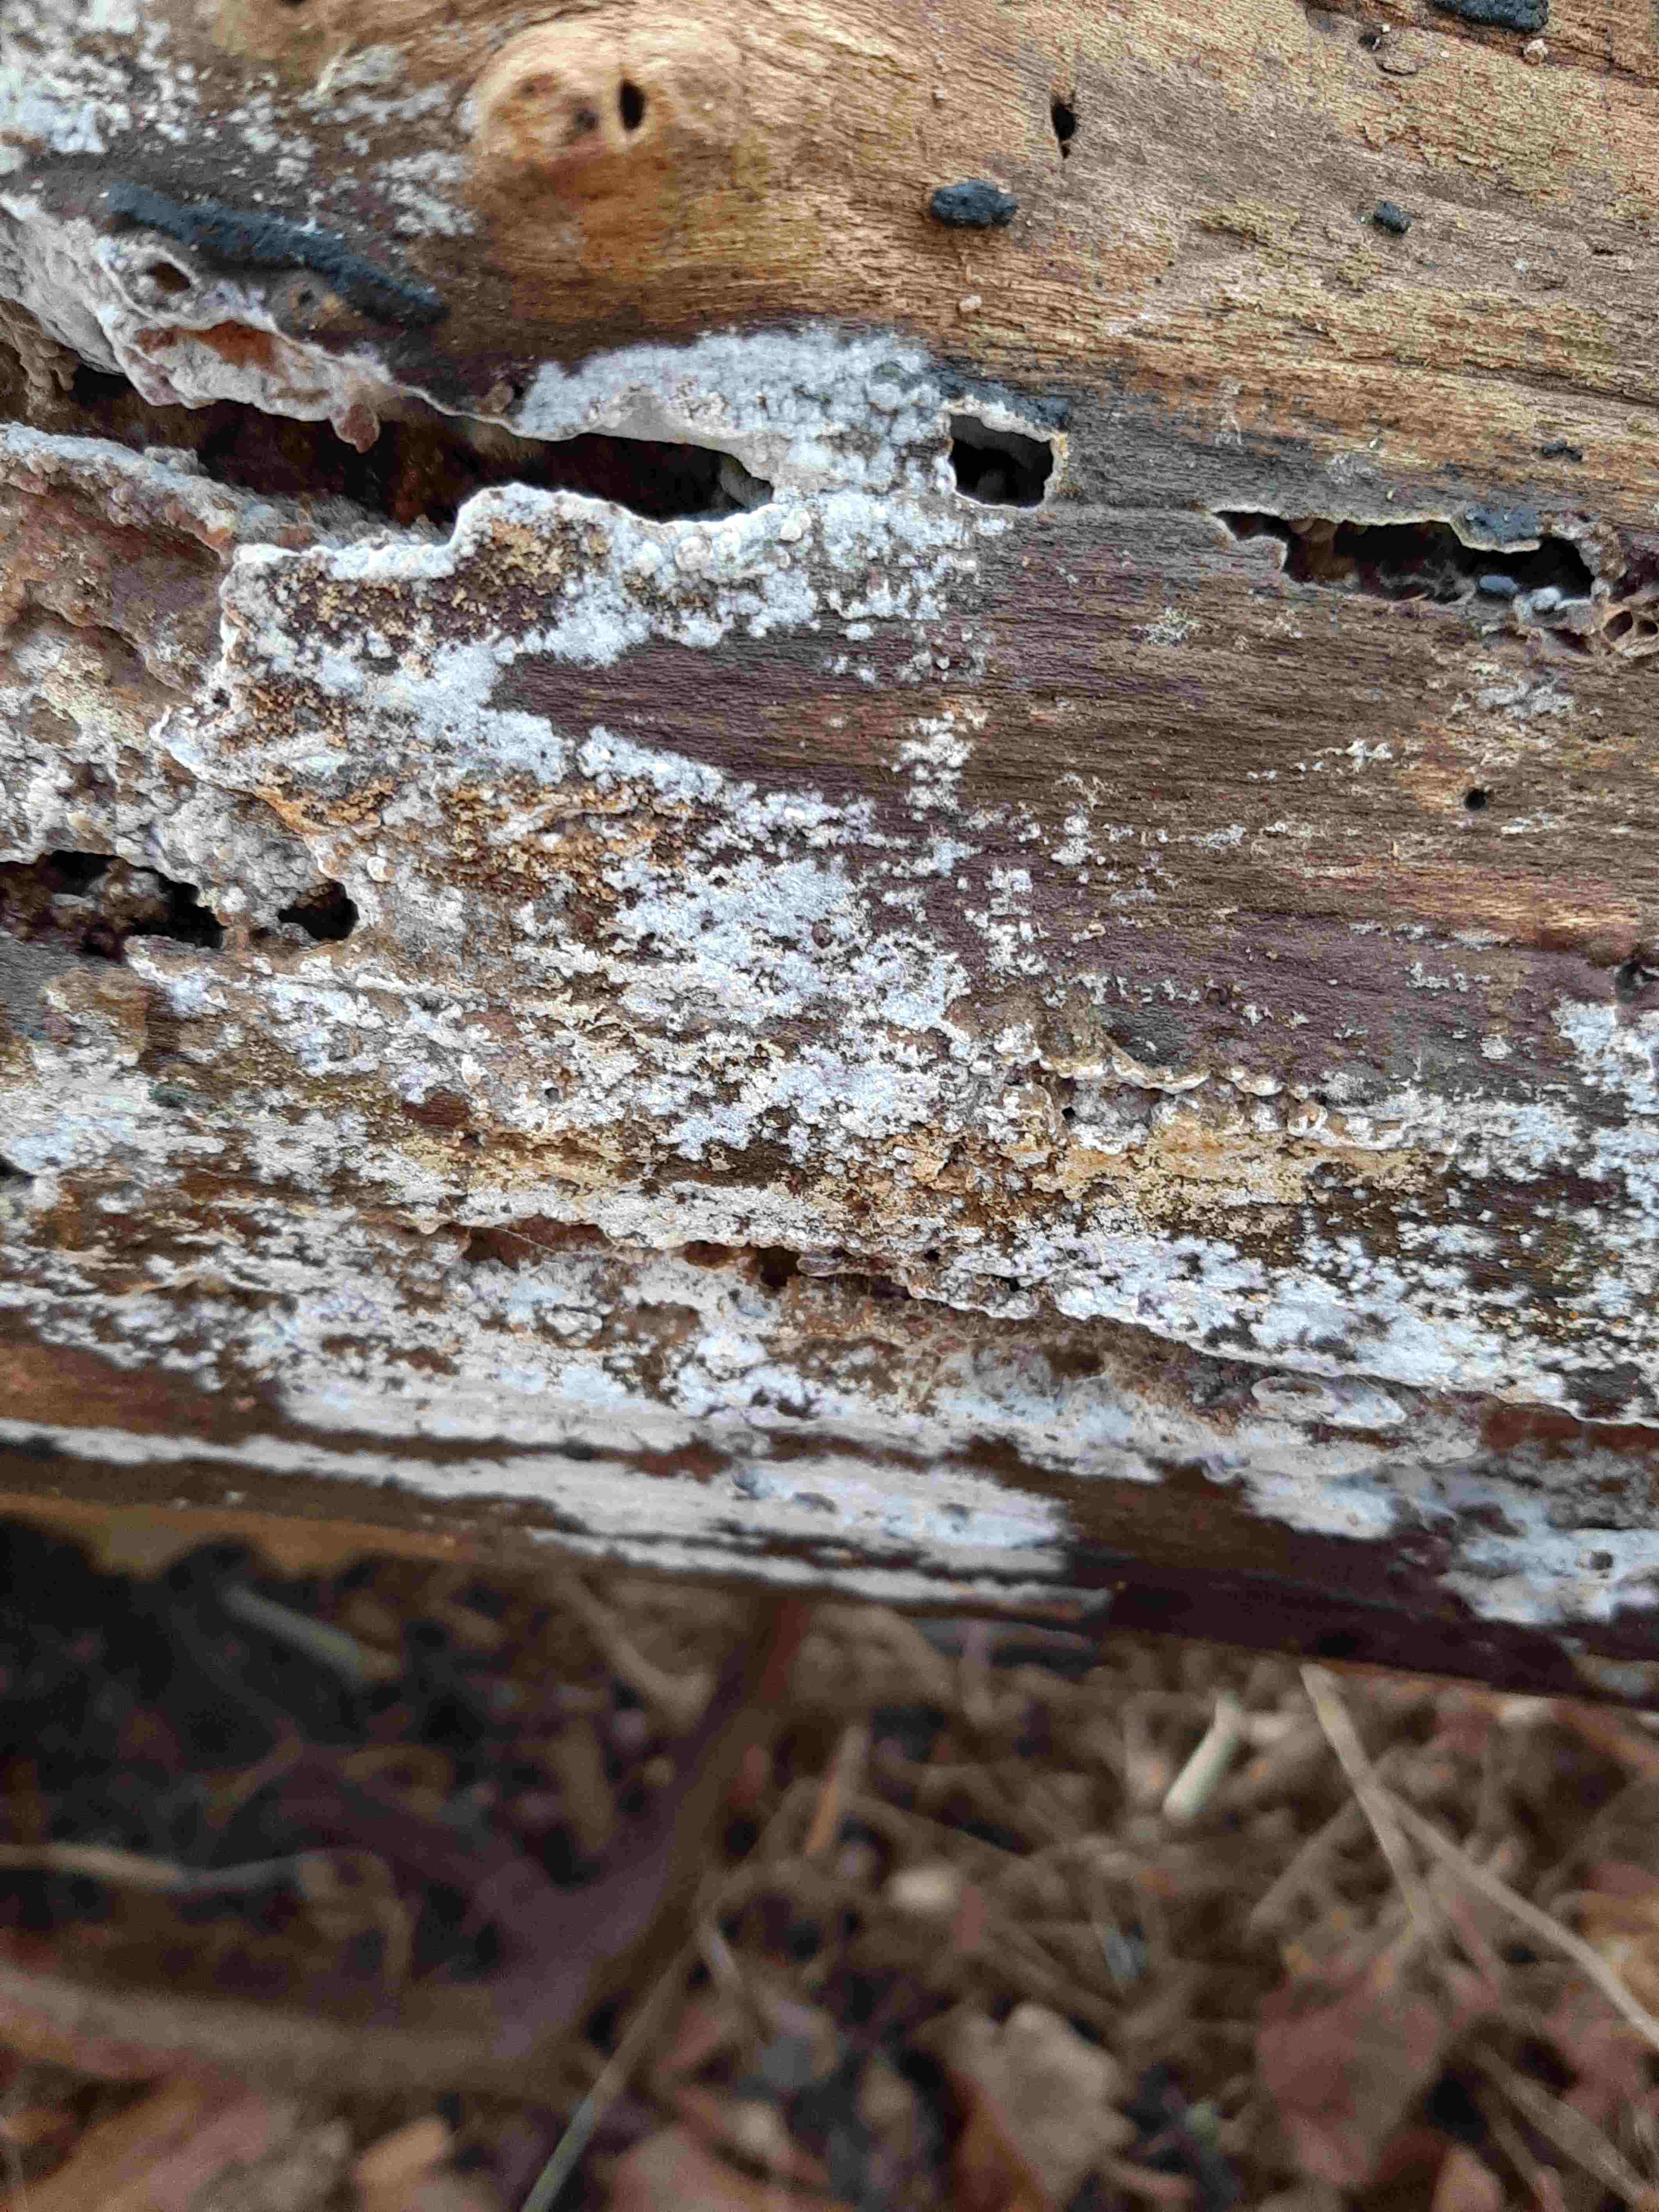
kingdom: Fungi
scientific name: Fungi
